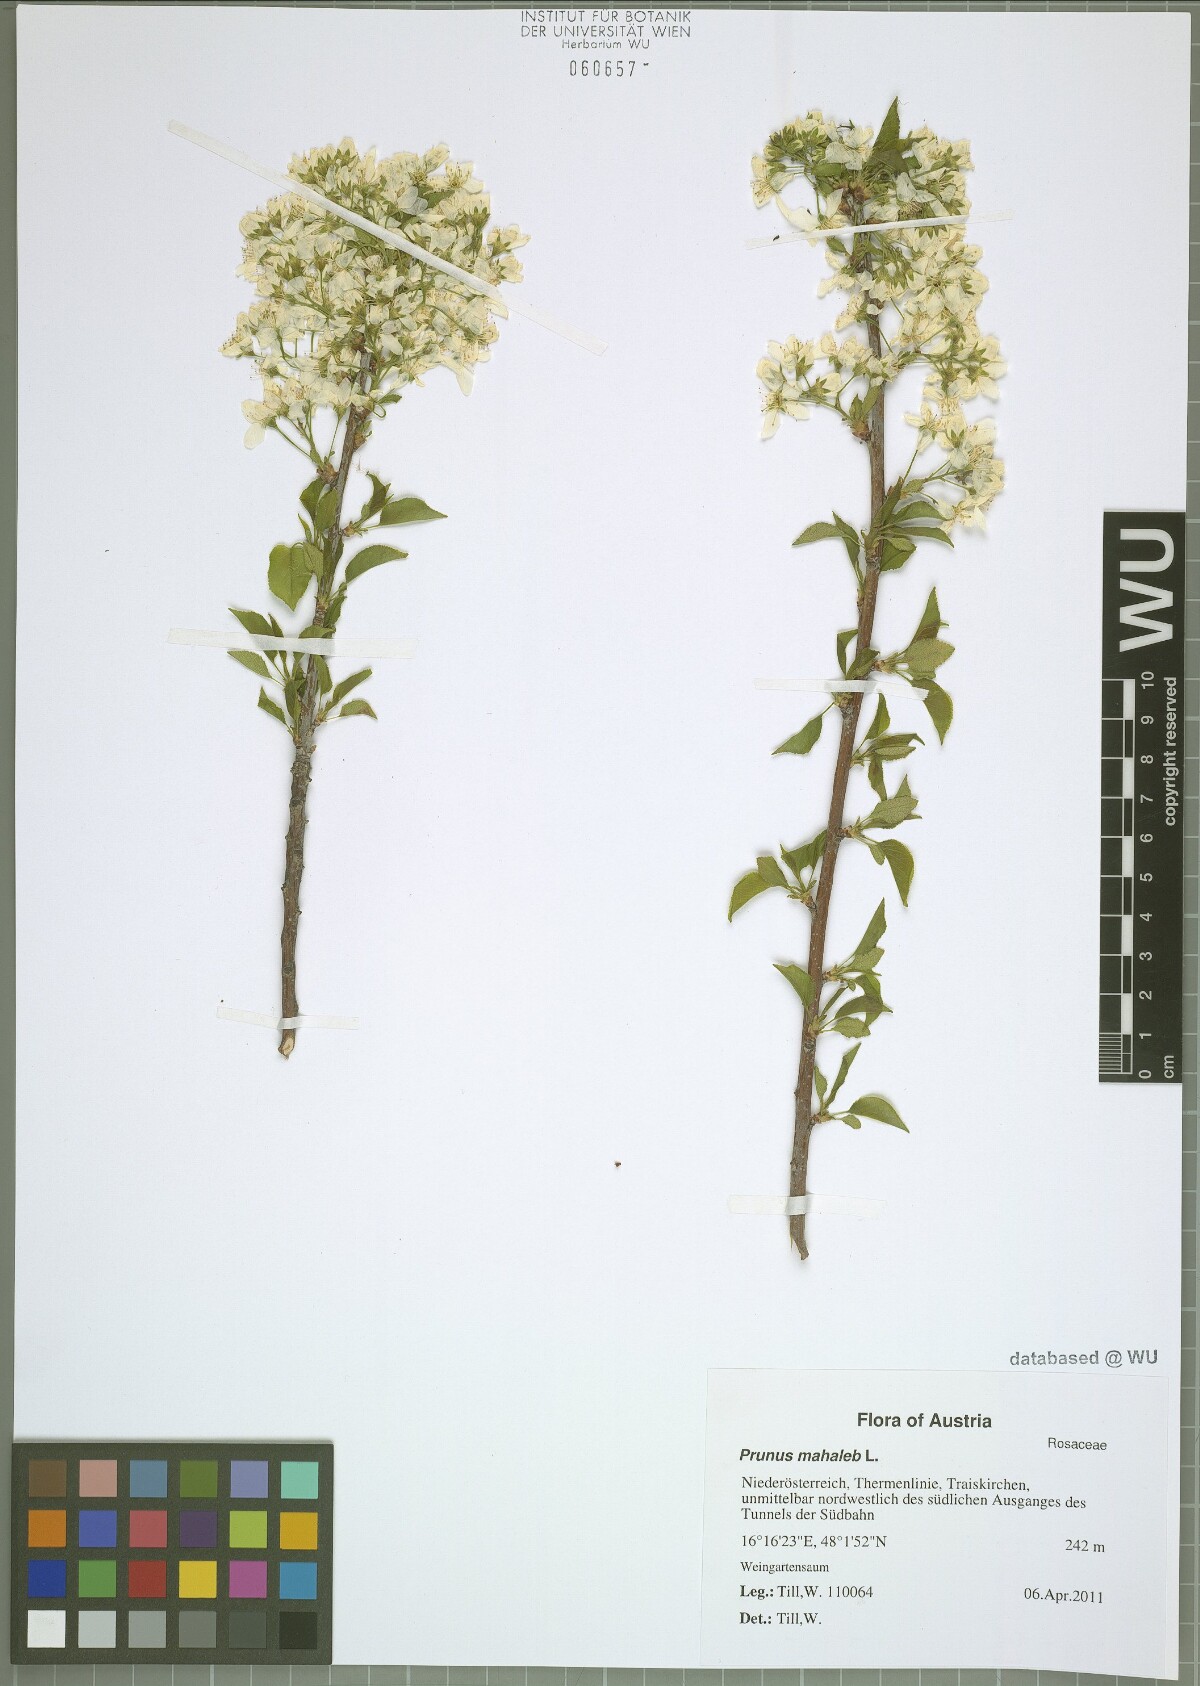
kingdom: Plantae
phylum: Tracheophyta
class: Magnoliopsida
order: Rosales
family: Rosaceae
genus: Prunus
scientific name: Prunus mahaleb
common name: Mahaleb cherry
